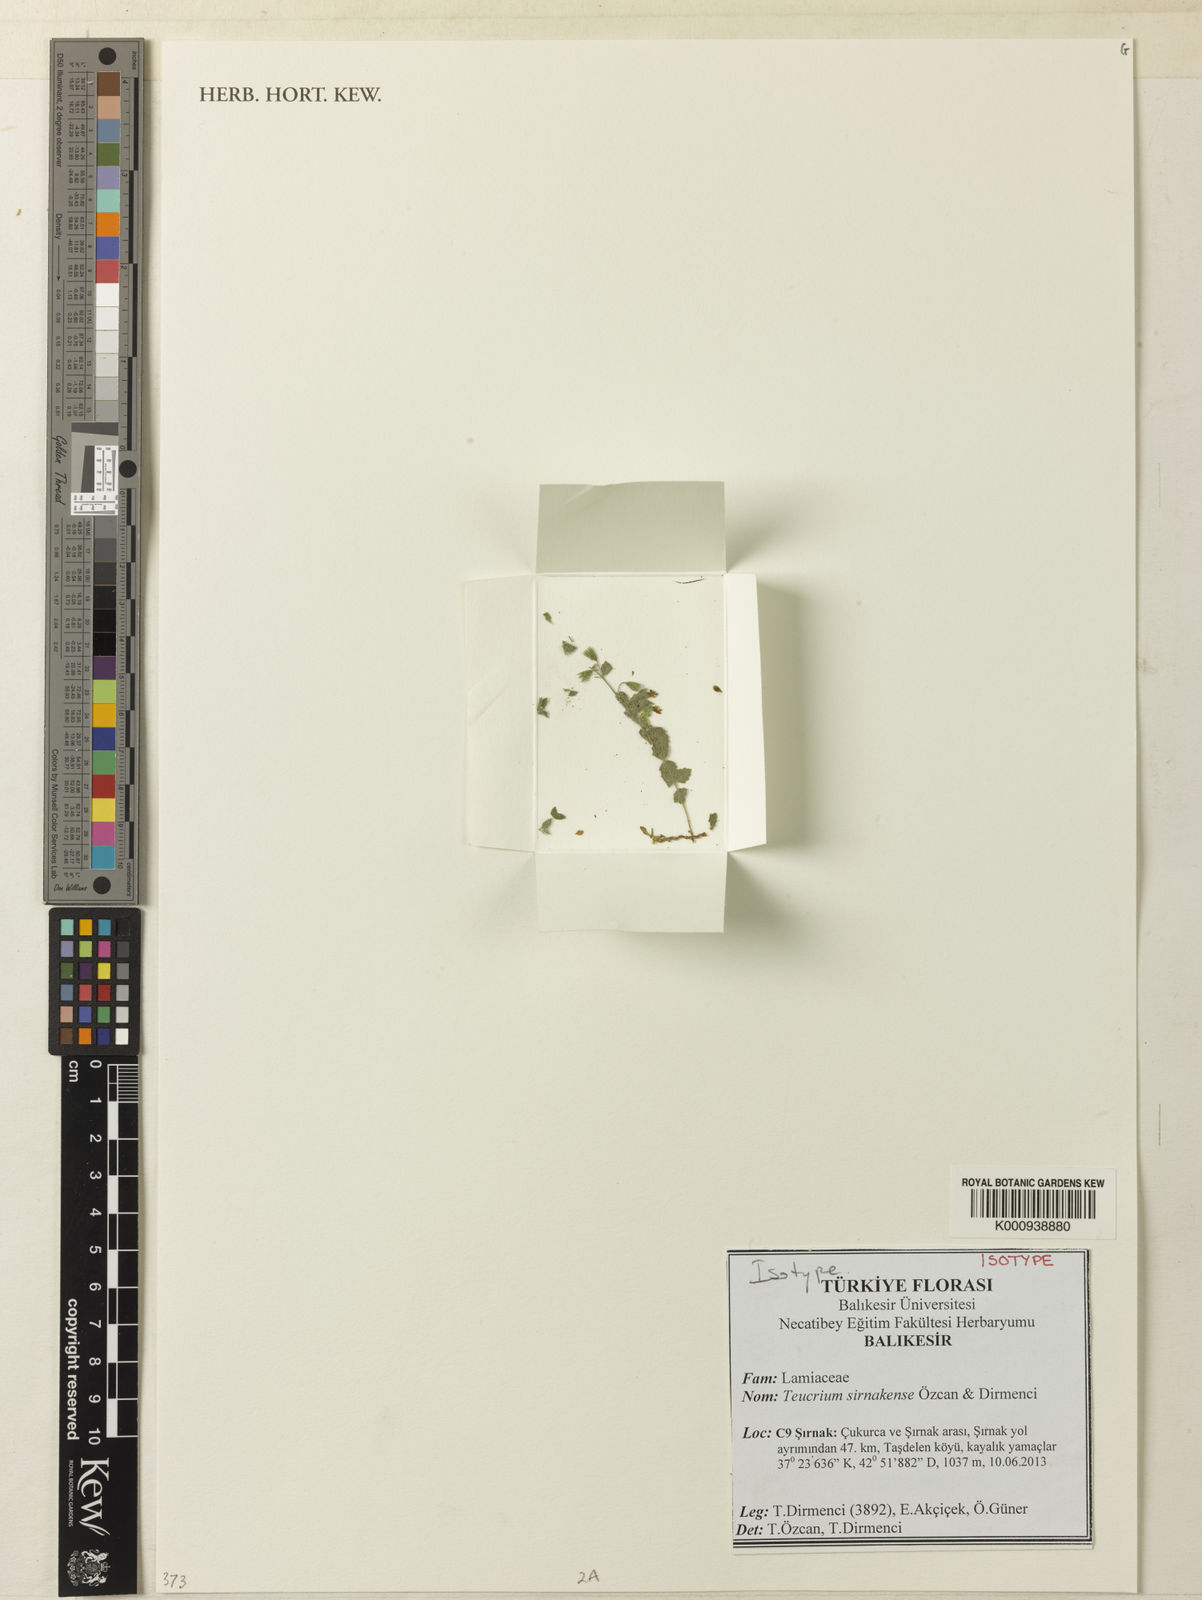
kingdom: Plantae
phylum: Tracheophyta
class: Magnoliopsida
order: Lamiales
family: Lamiaceae
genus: Teucrium
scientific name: Teucrium
